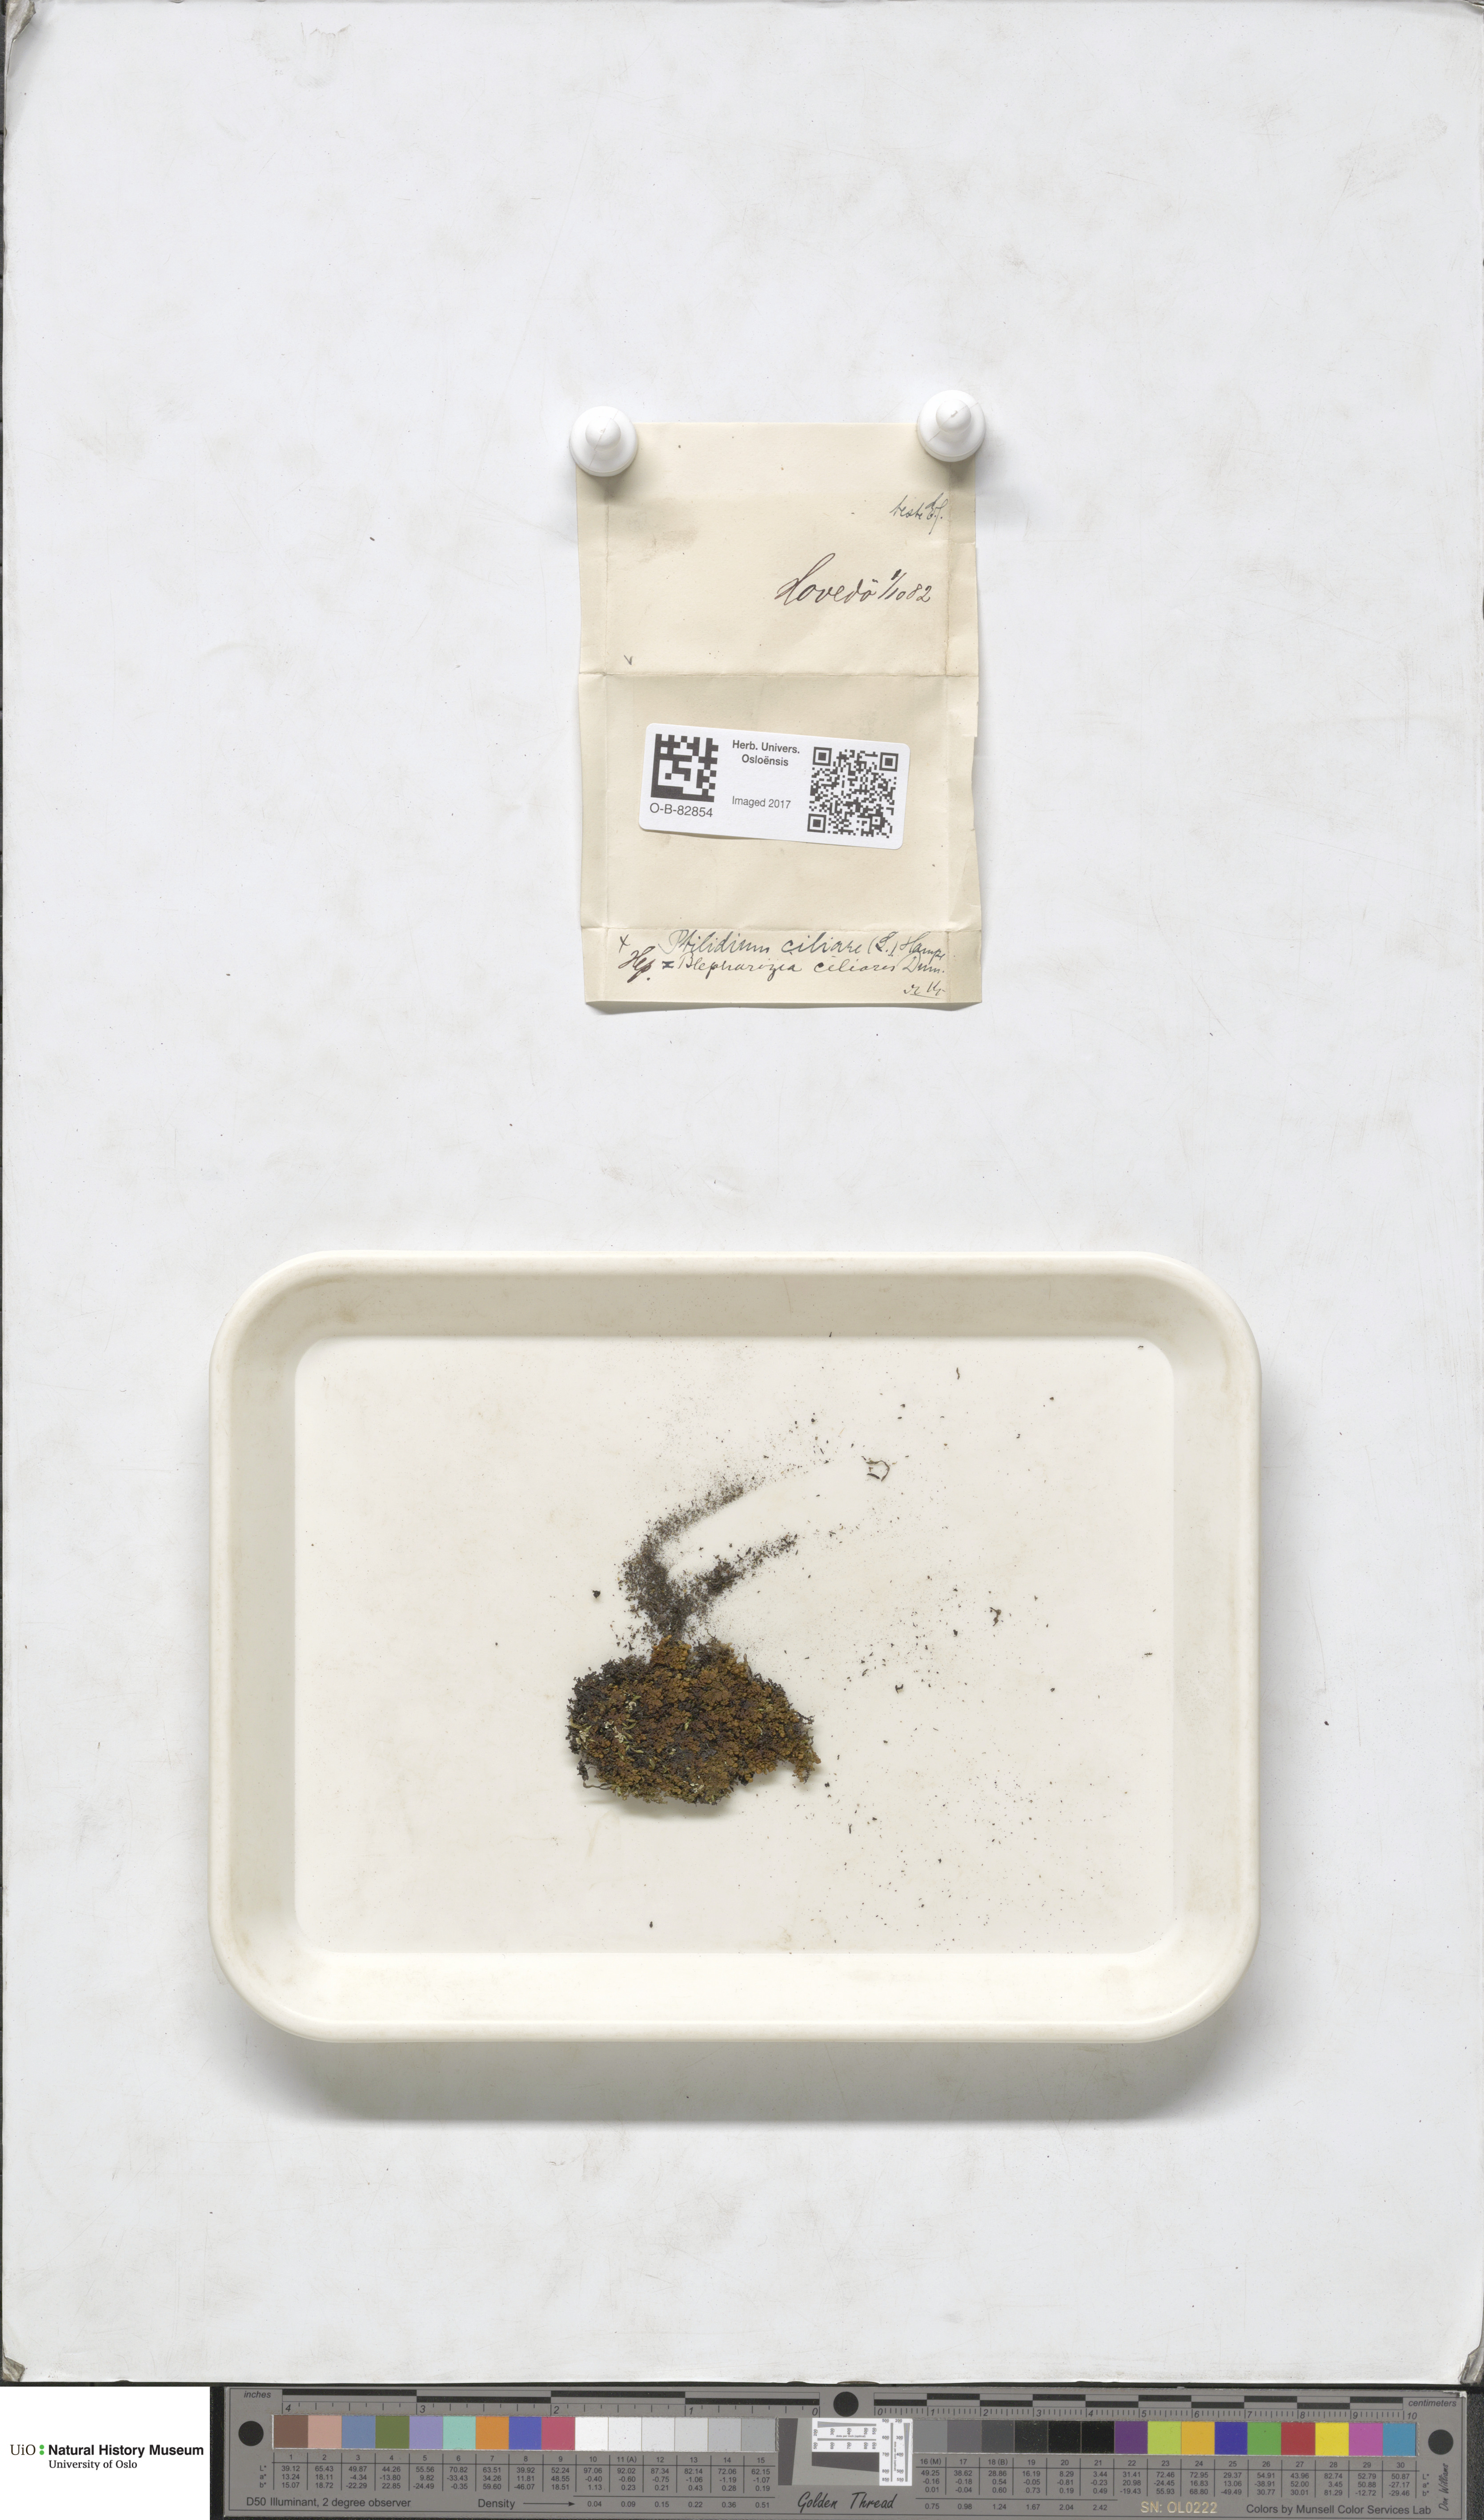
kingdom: Plantae
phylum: Marchantiophyta
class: Jungermanniopsida
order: Ptilidiales
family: Ptilidiaceae
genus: Ptilidium
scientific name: Ptilidium ciliare
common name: Ciliate fringewort
